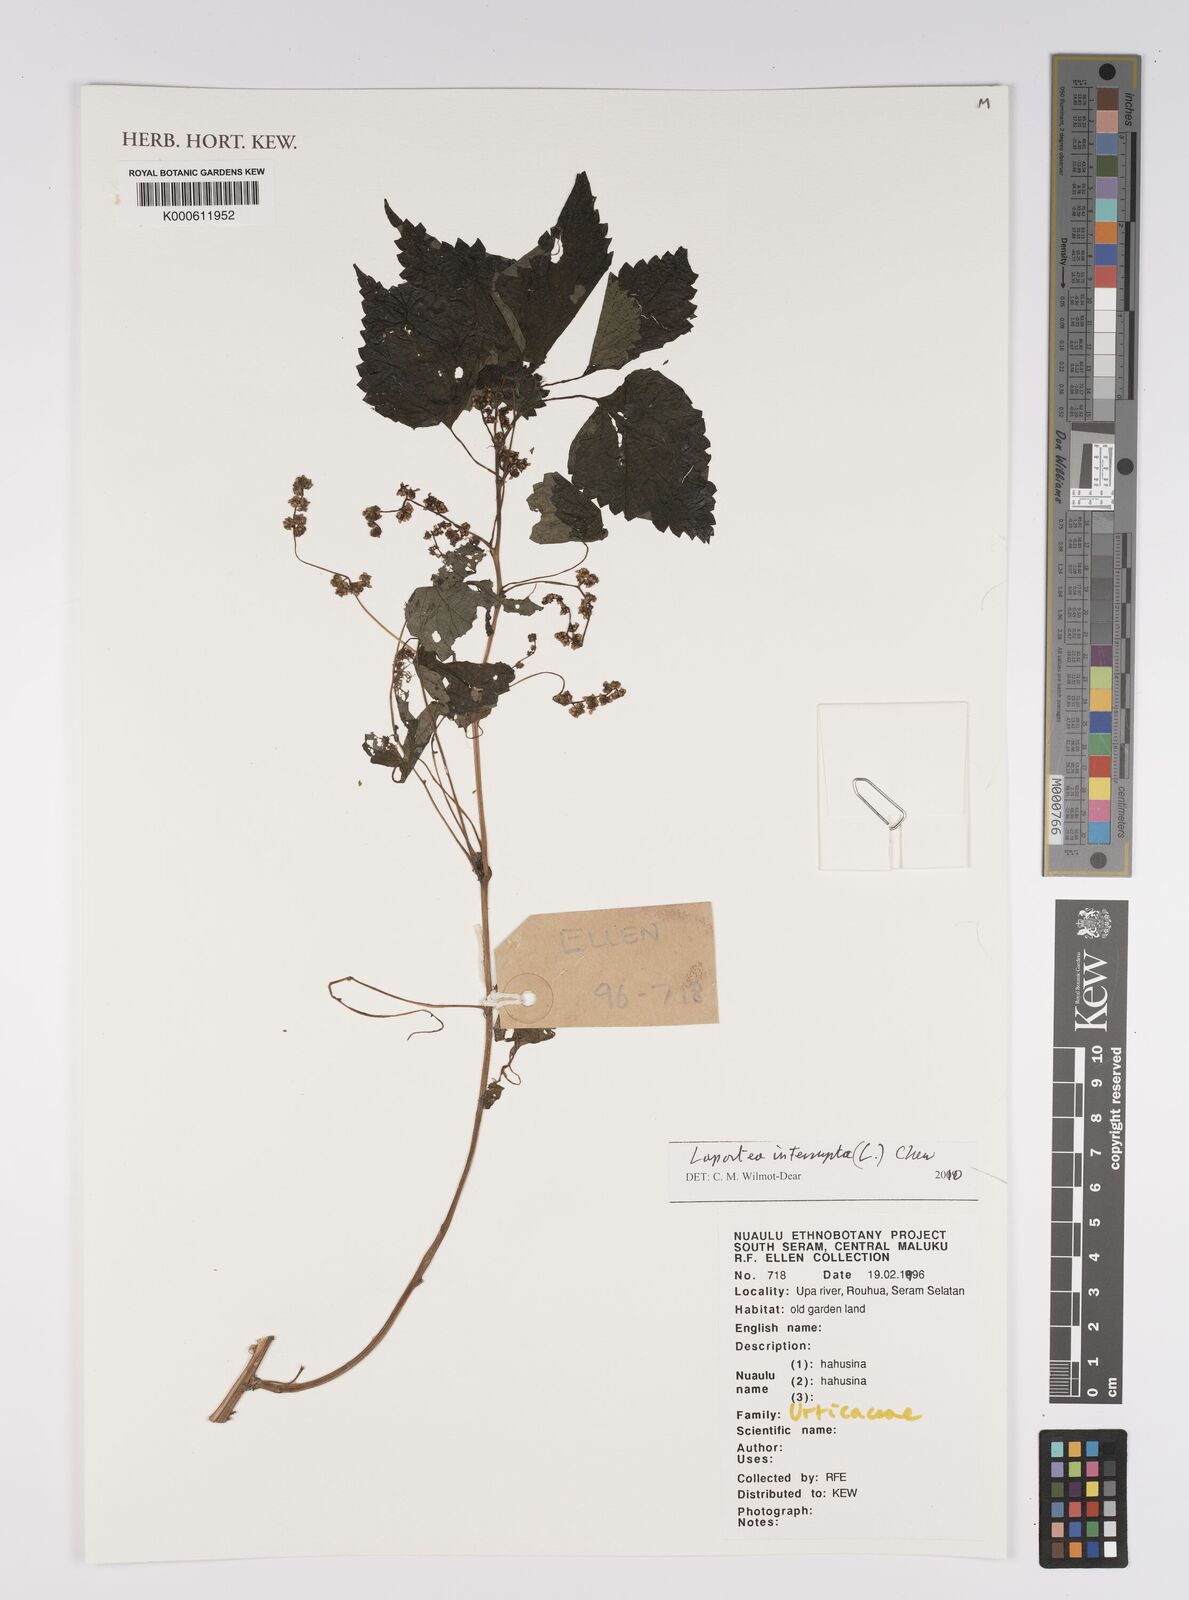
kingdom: Plantae
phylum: Tracheophyta
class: Magnoliopsida
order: Rosales
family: Urticaceae
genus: Laportea
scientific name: Laportea interrupta
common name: Hawaiian wood-nettle
